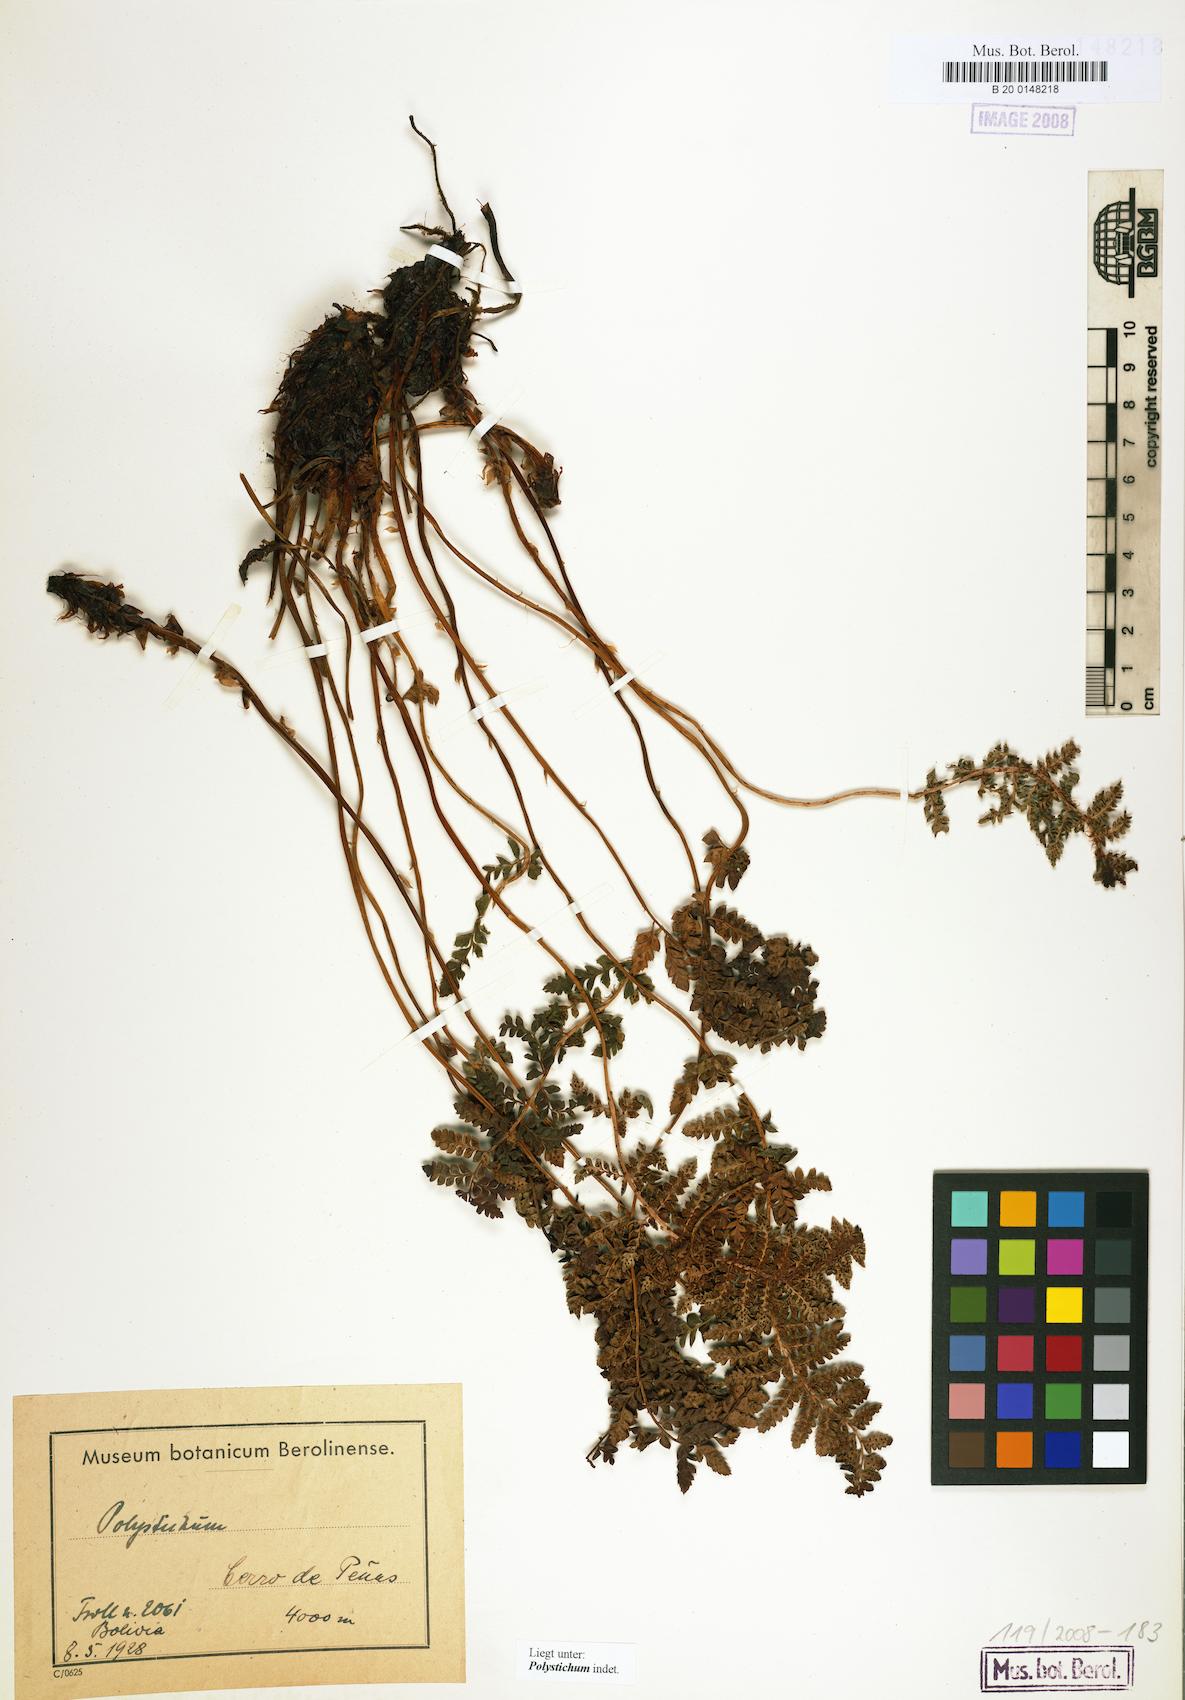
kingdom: Plantae
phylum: Tracheophyta
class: Polypodiopsida
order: Polypodiales
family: Dryopteridaceae
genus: Polystichum
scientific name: Polystichum
